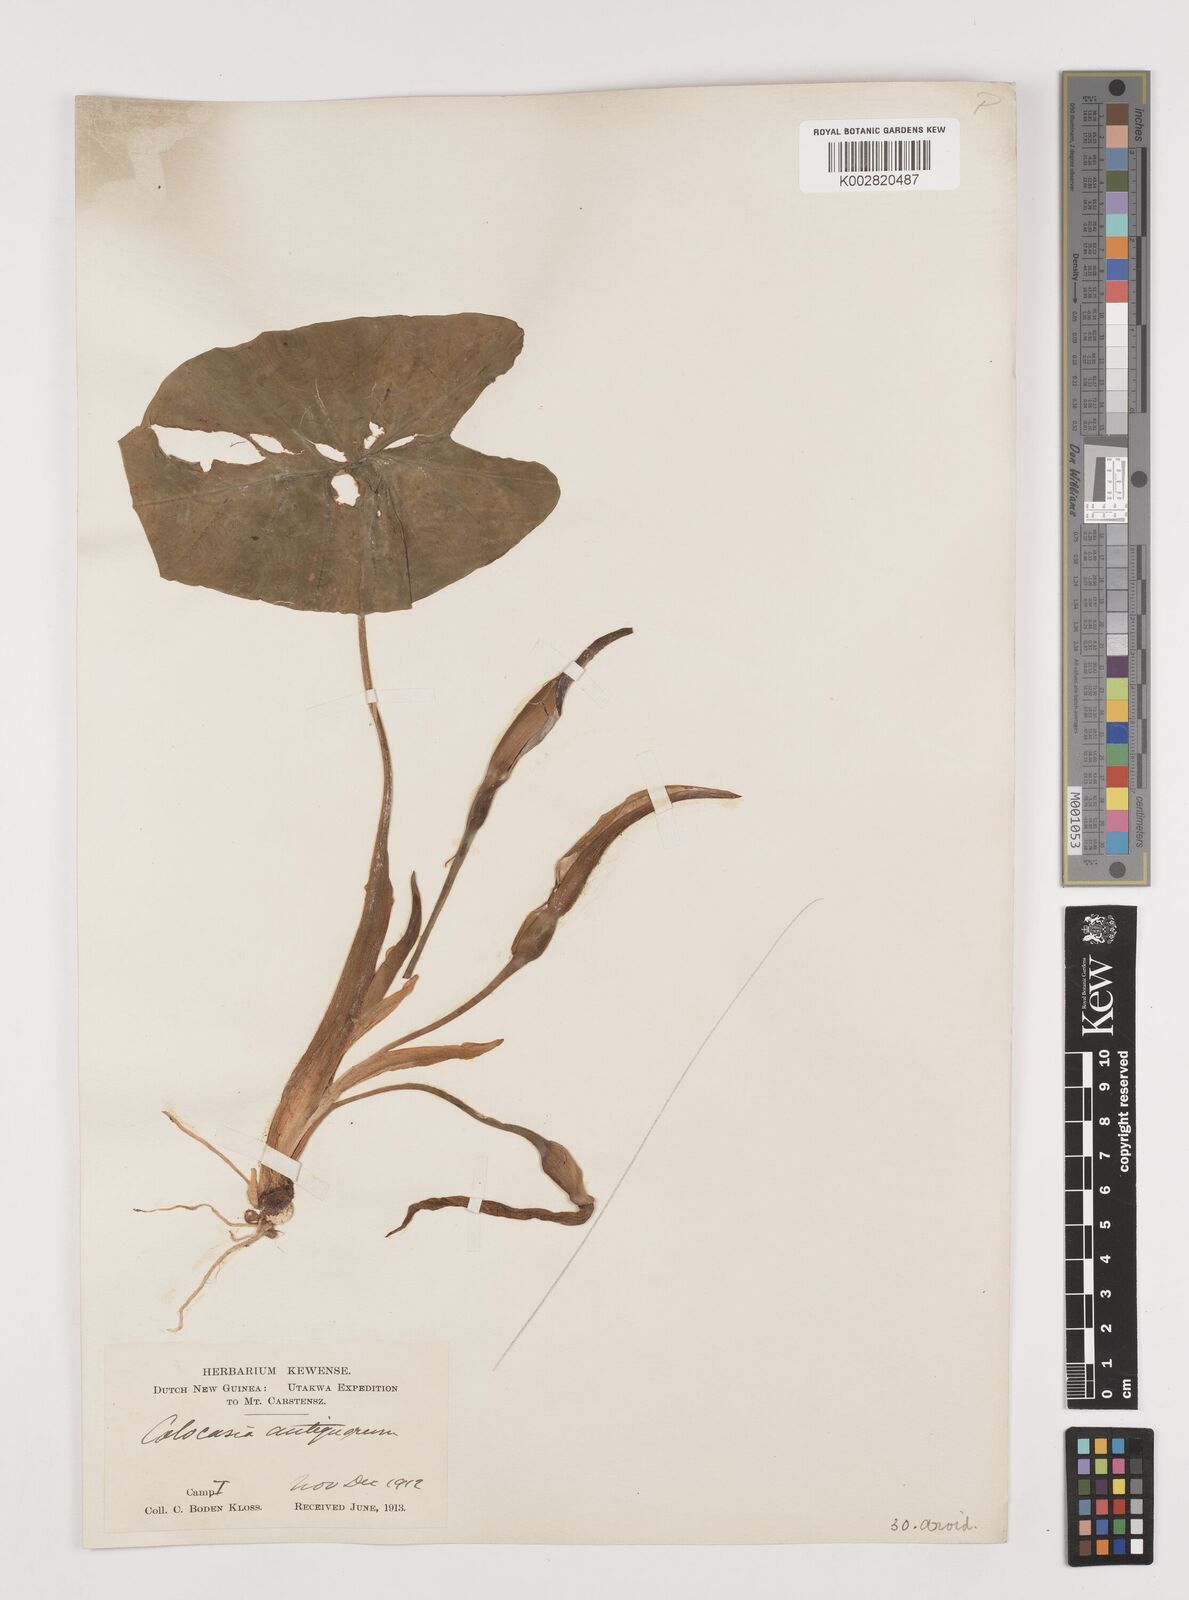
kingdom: Plantae
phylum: Tracheophyta
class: Liliopsida
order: Alismatales
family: Araceae
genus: Colocasia
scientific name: Colocasia esculenta
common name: Taro
